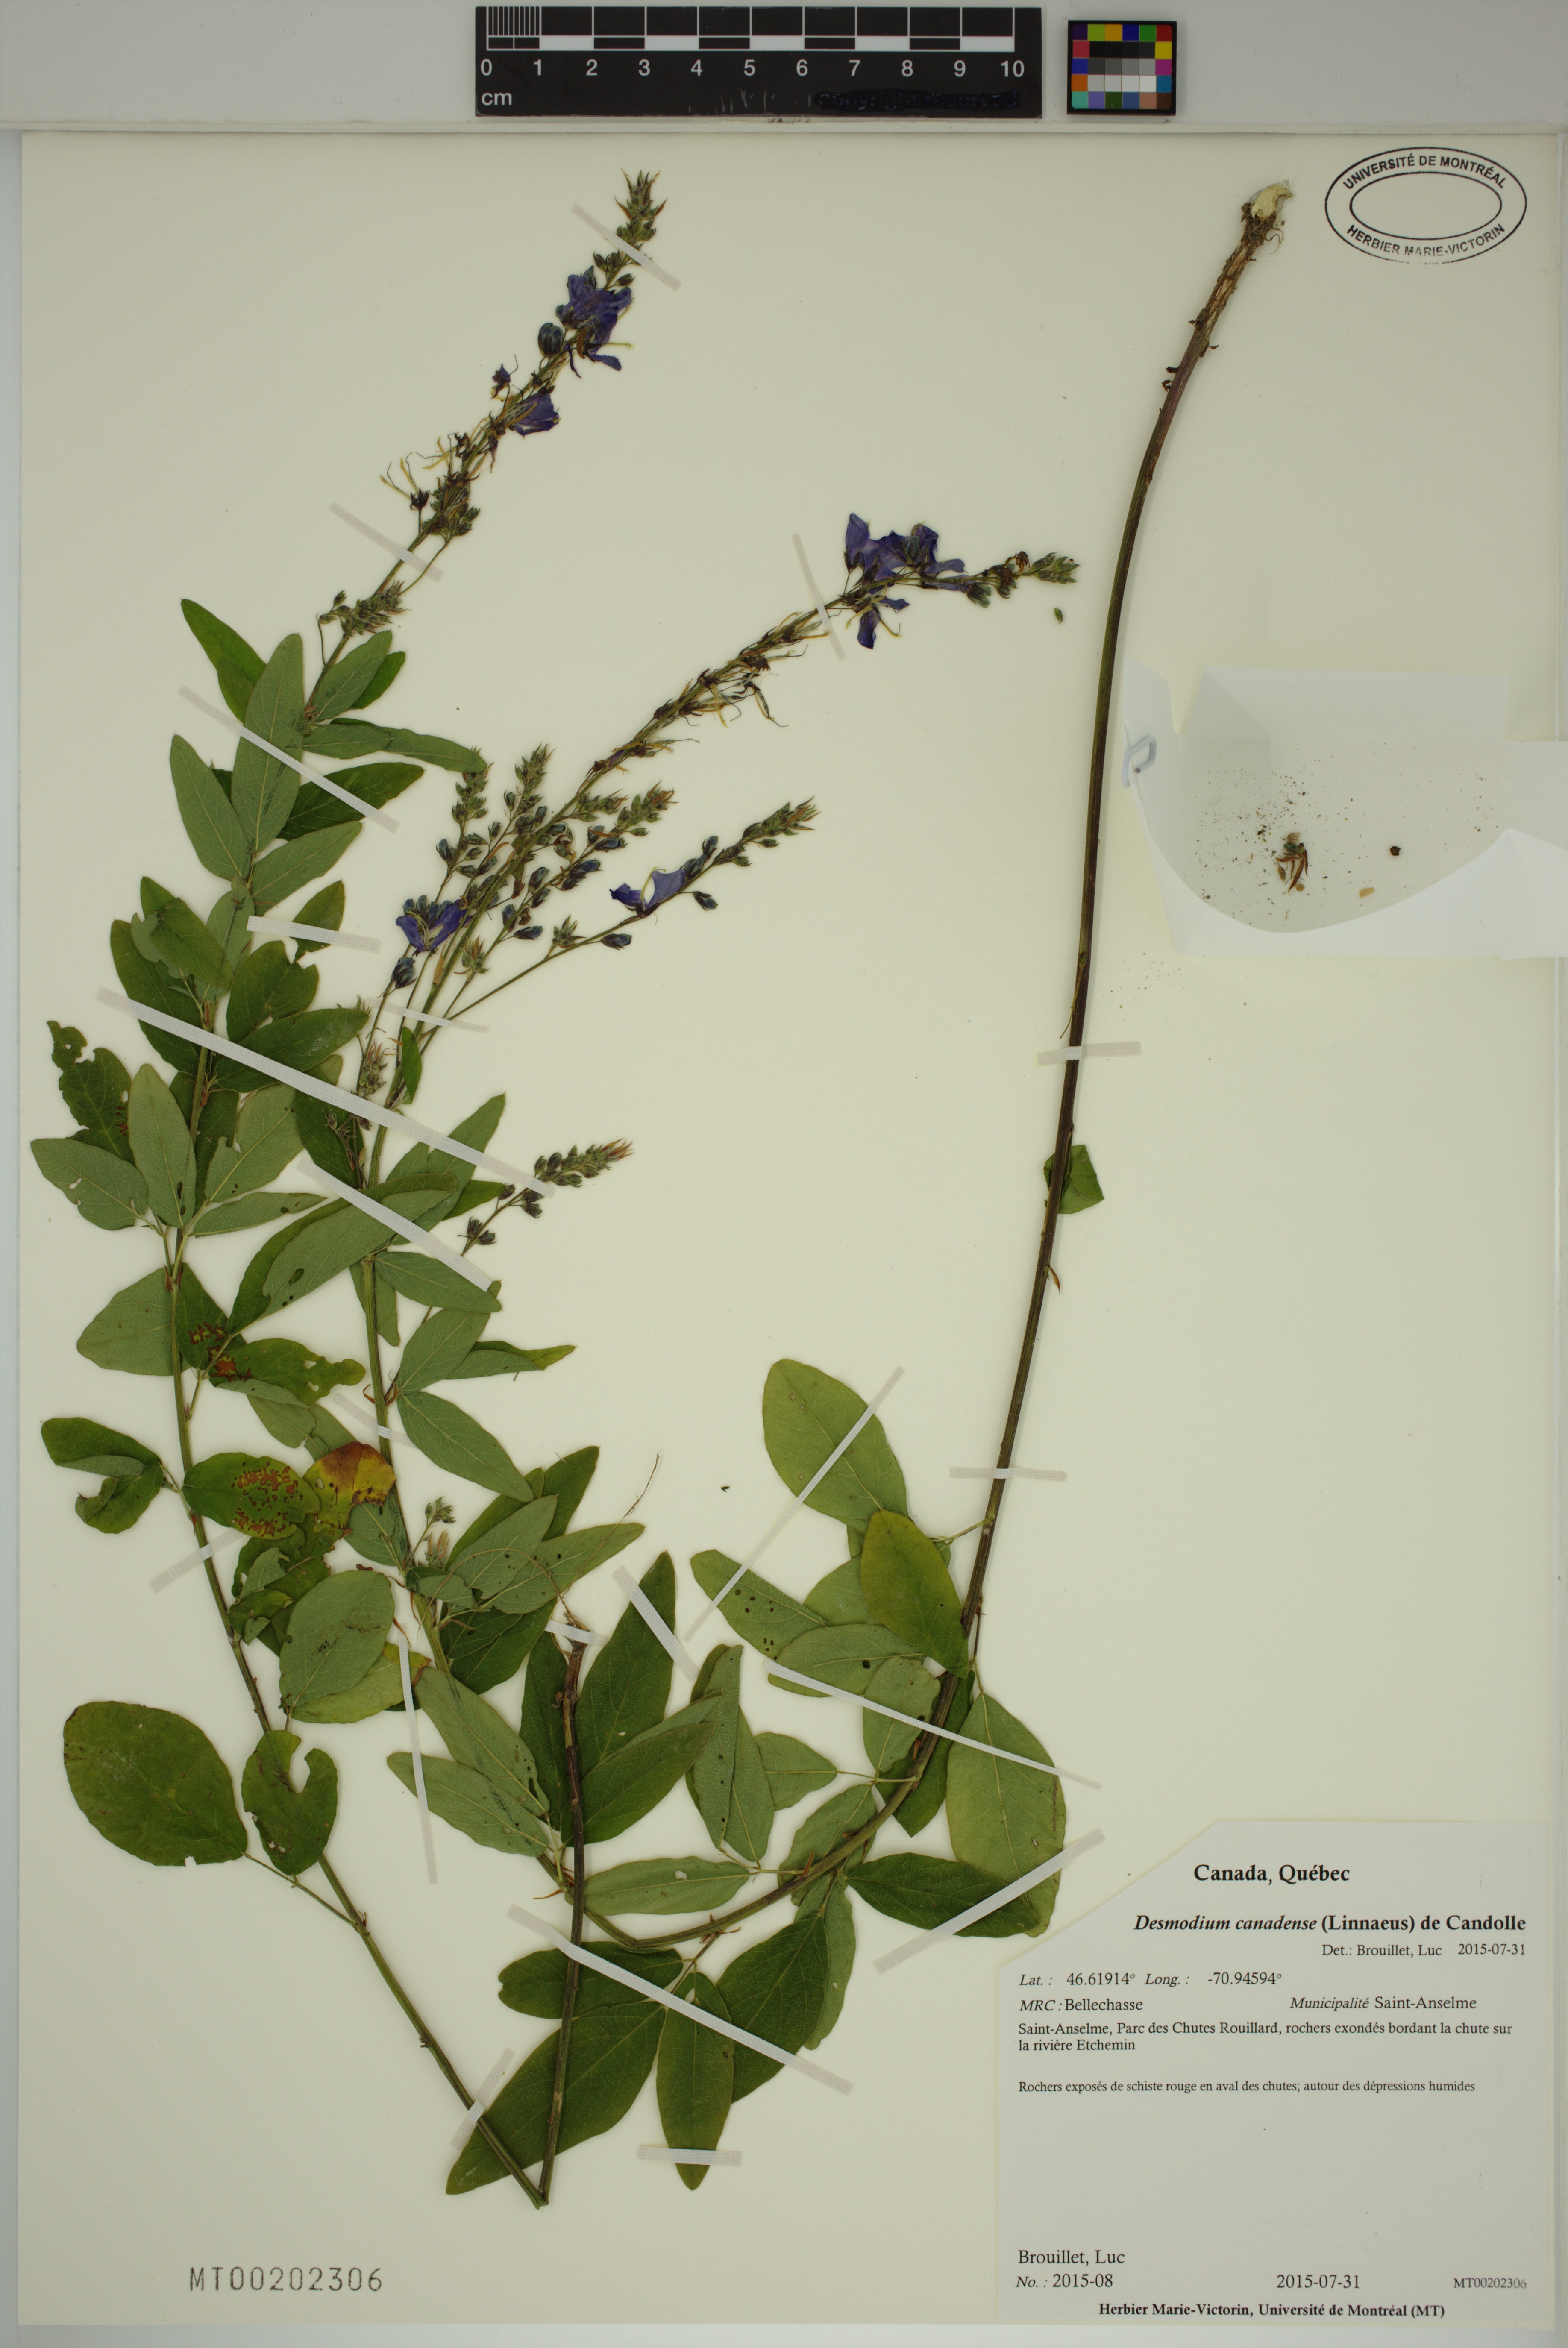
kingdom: Plantae
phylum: Tracheophyta
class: Magnoliopsida
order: Fabales
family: Fabaceae
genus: Desmodium
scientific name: Desmodium canadense
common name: Canada tick-trefoil
